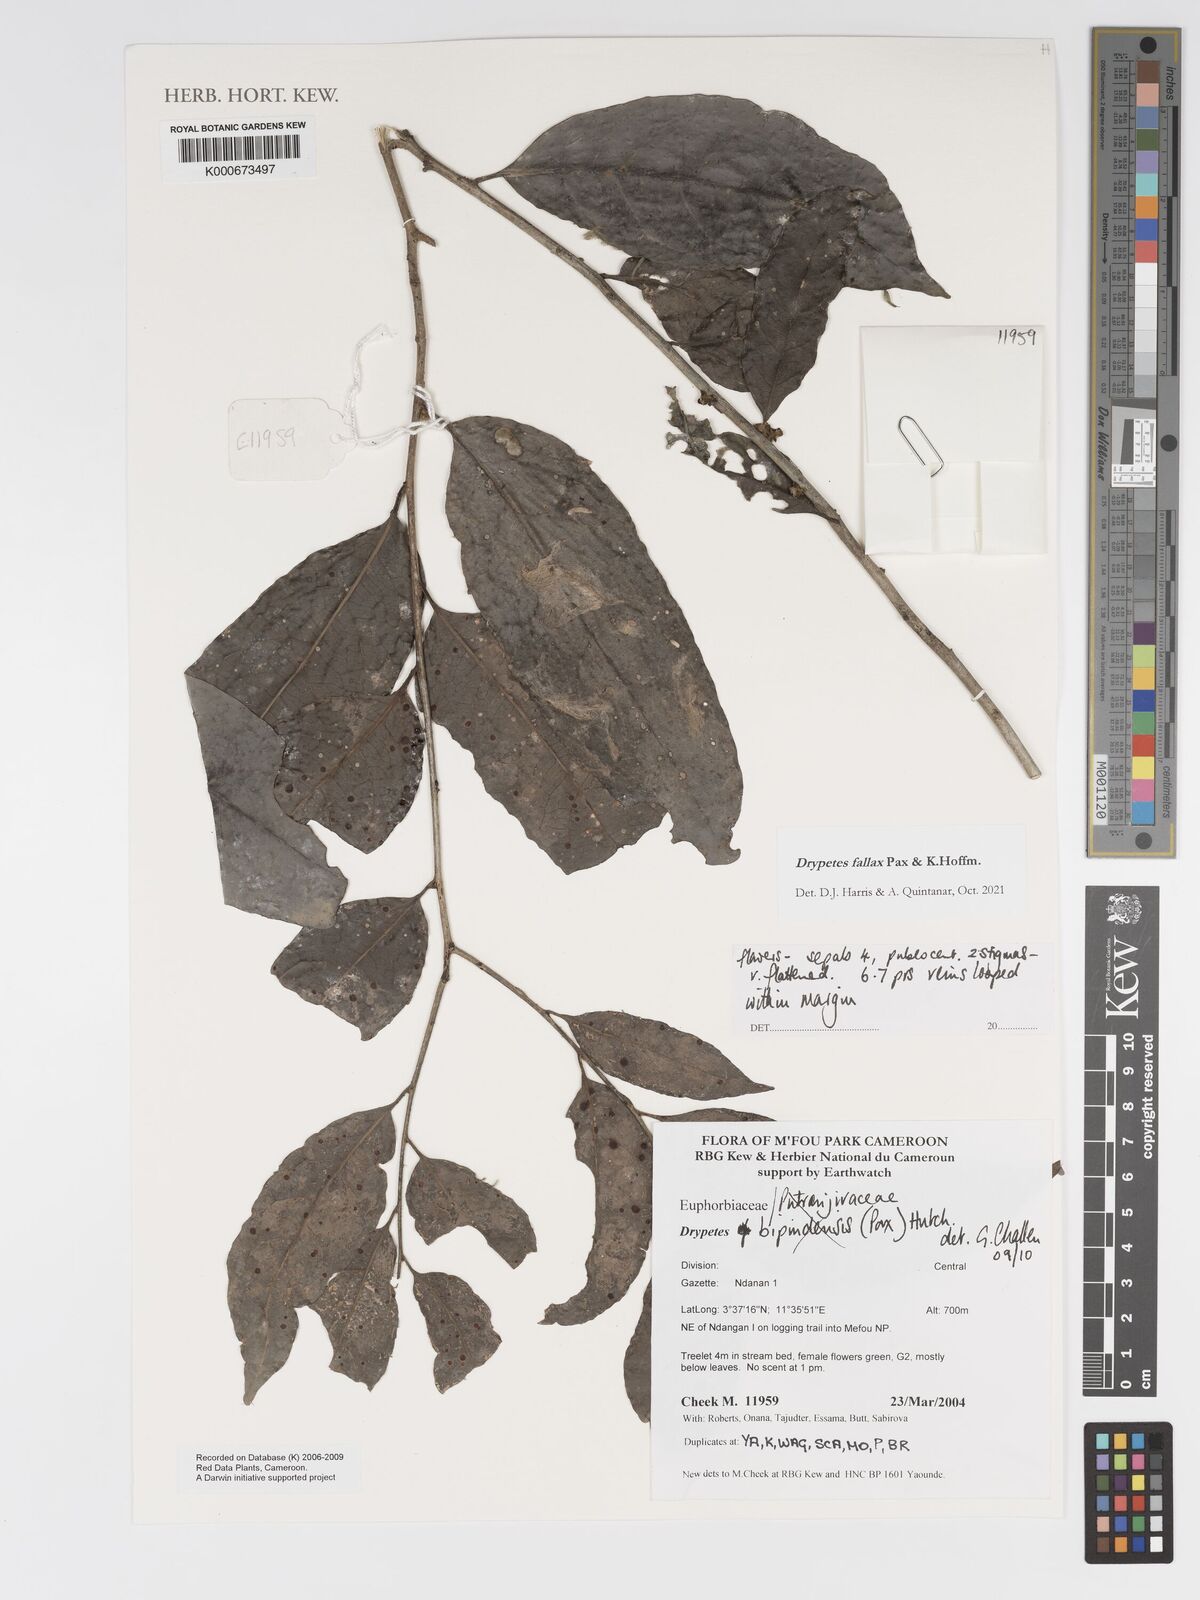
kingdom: Plantae
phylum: Tracheophyta
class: Magnoliopsida
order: Malpighiales
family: Putranjivaceae
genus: Drypetes
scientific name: Drypetes bipindensis
